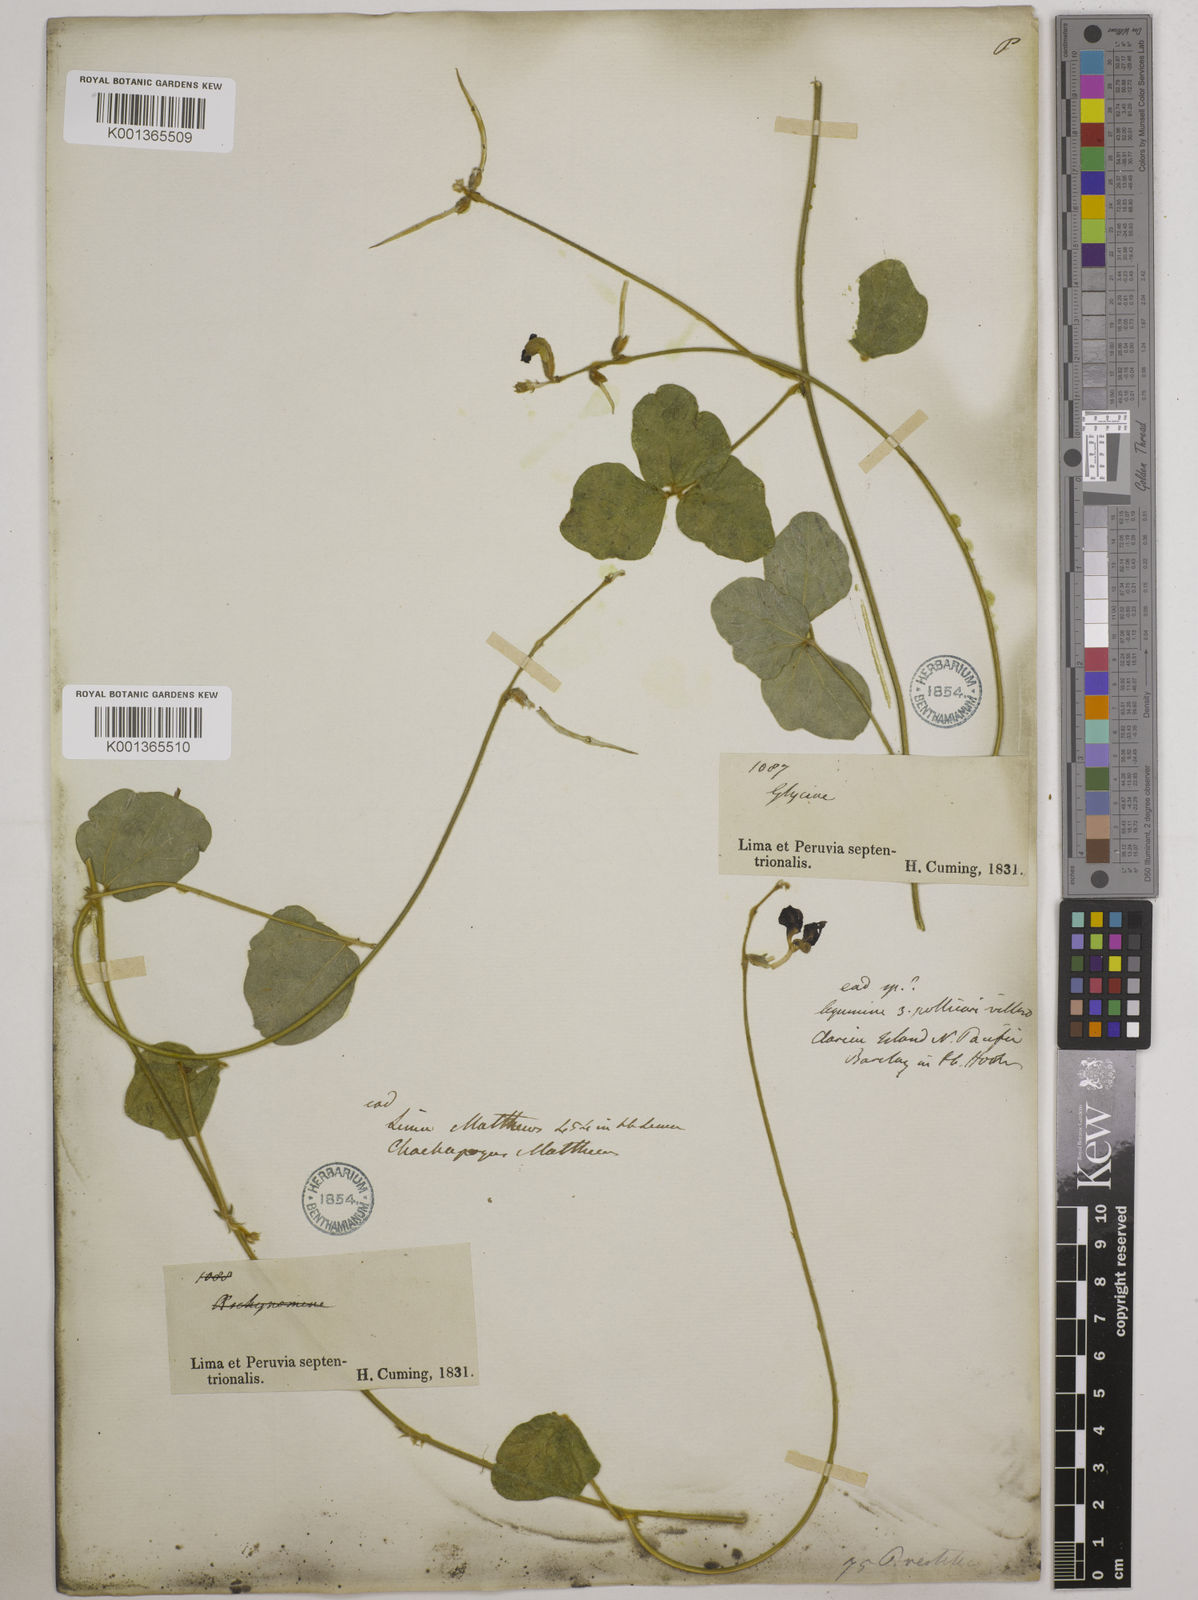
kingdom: Plantae
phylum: Tracheophyta
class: Magnoliopsida
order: Fabales
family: Fabaceae
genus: Macroptilium
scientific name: Macroptilium atropurpureum
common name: Purple bushbean
